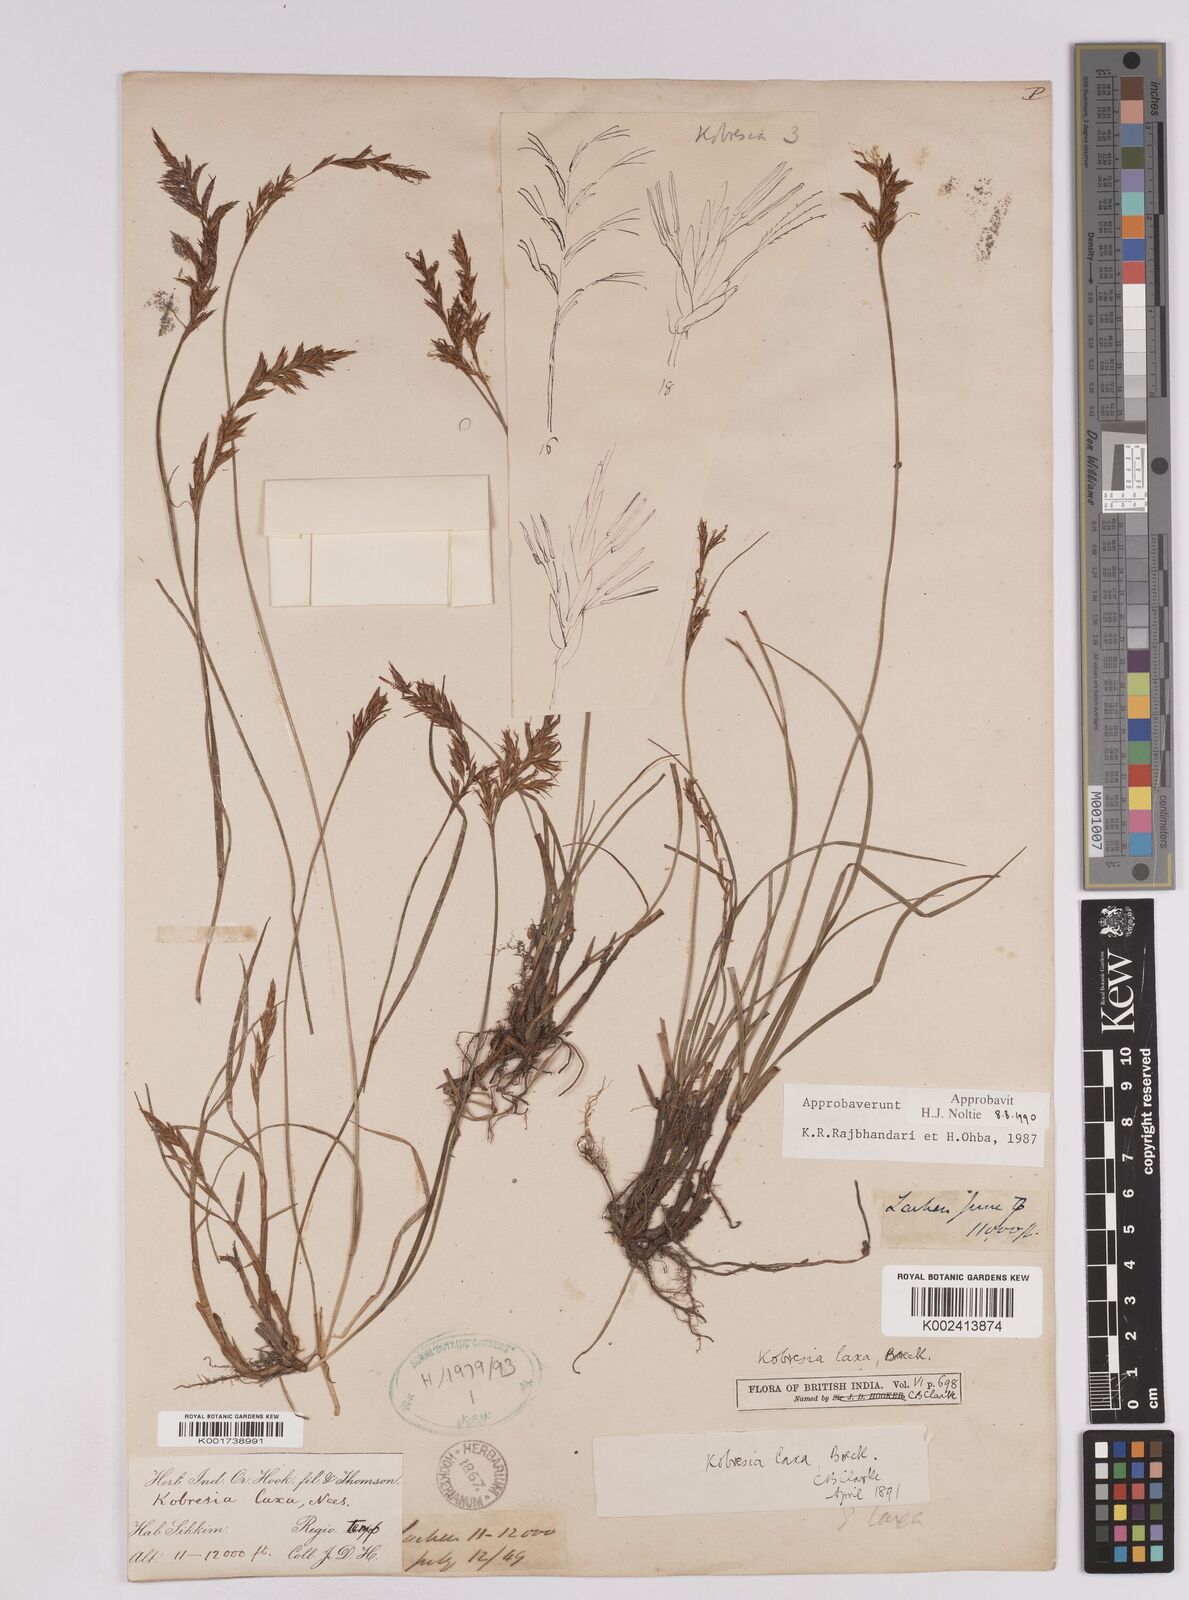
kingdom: Plantae
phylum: Tracheophyta
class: Liliopsida
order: Poales
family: Cyperaceae
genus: Carex
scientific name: Carex pseudolaxa
